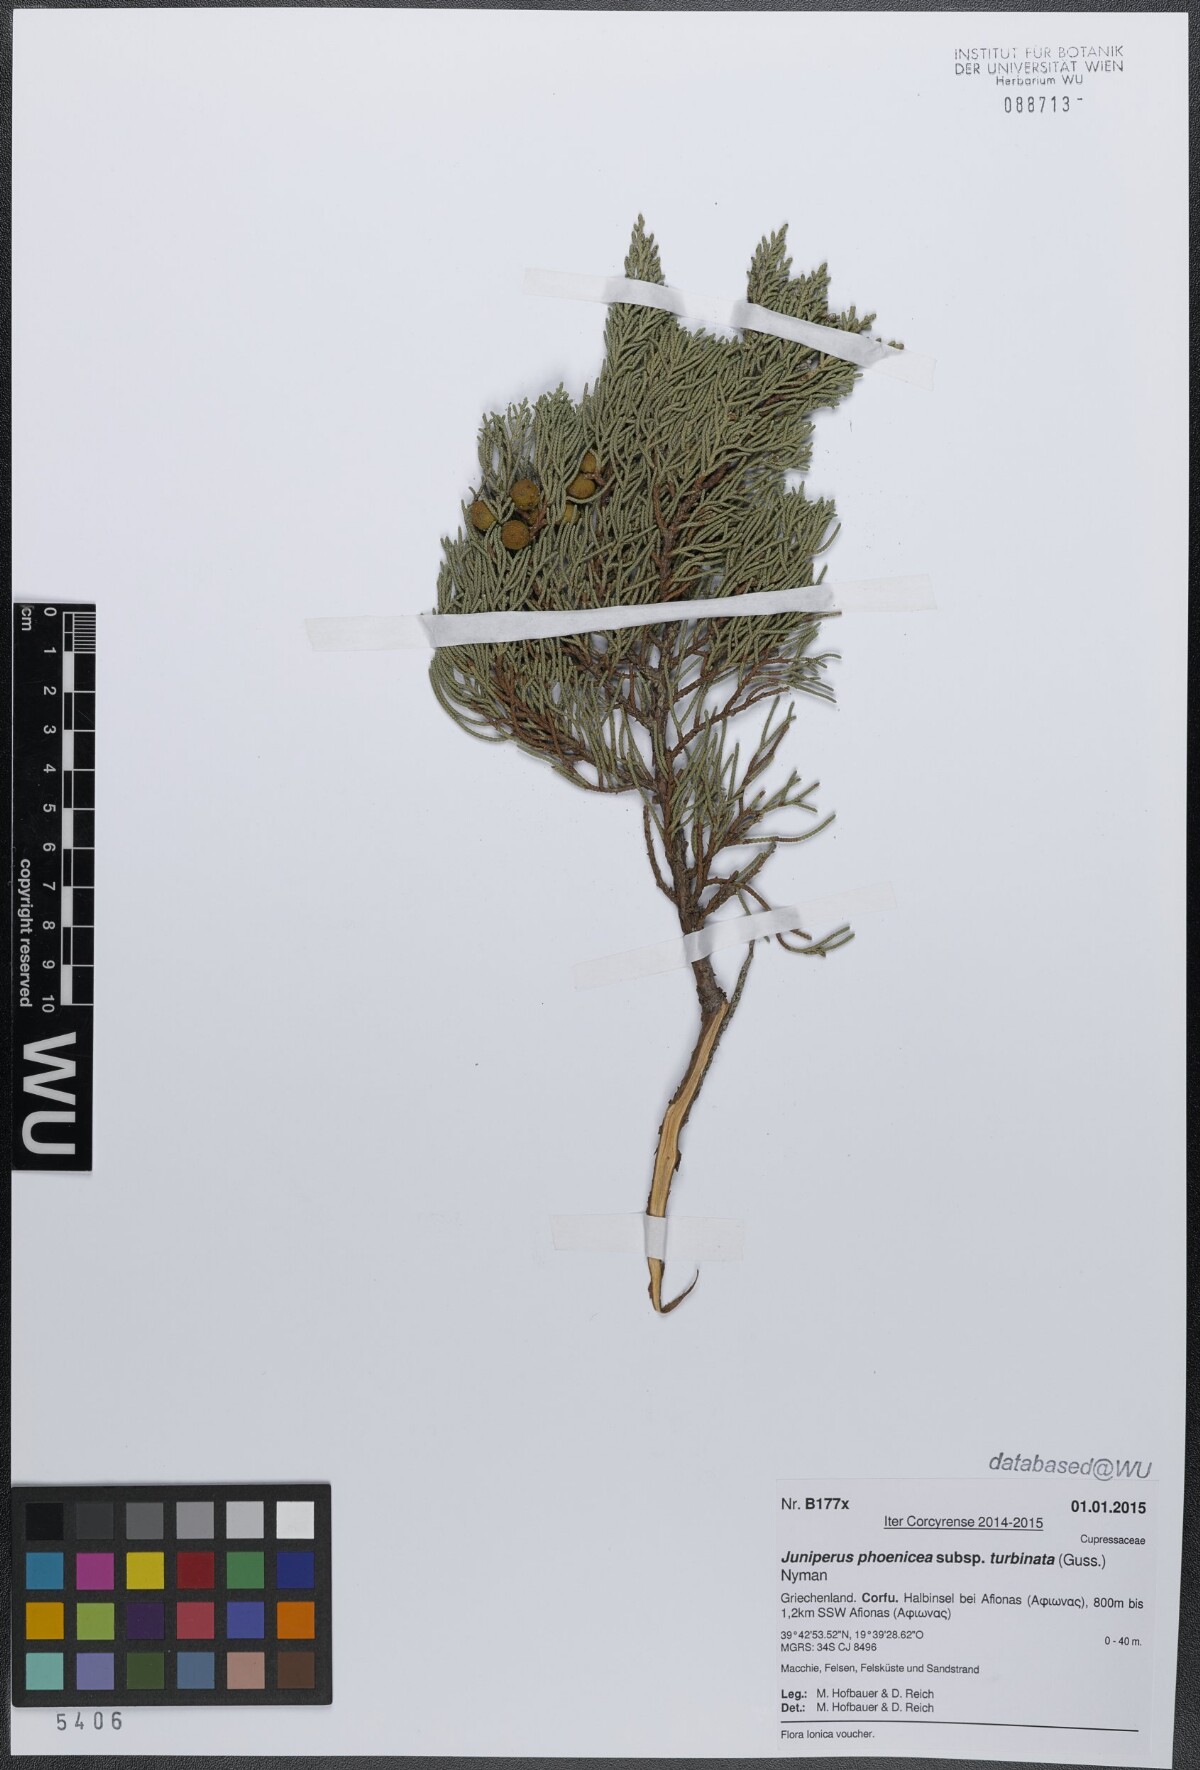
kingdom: Plantae
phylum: Tracheophyta
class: Pinopsida
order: Pinales
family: Cupressaceae
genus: Juniperus
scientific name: Juniperus phoenicea
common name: Phoenician juniper
